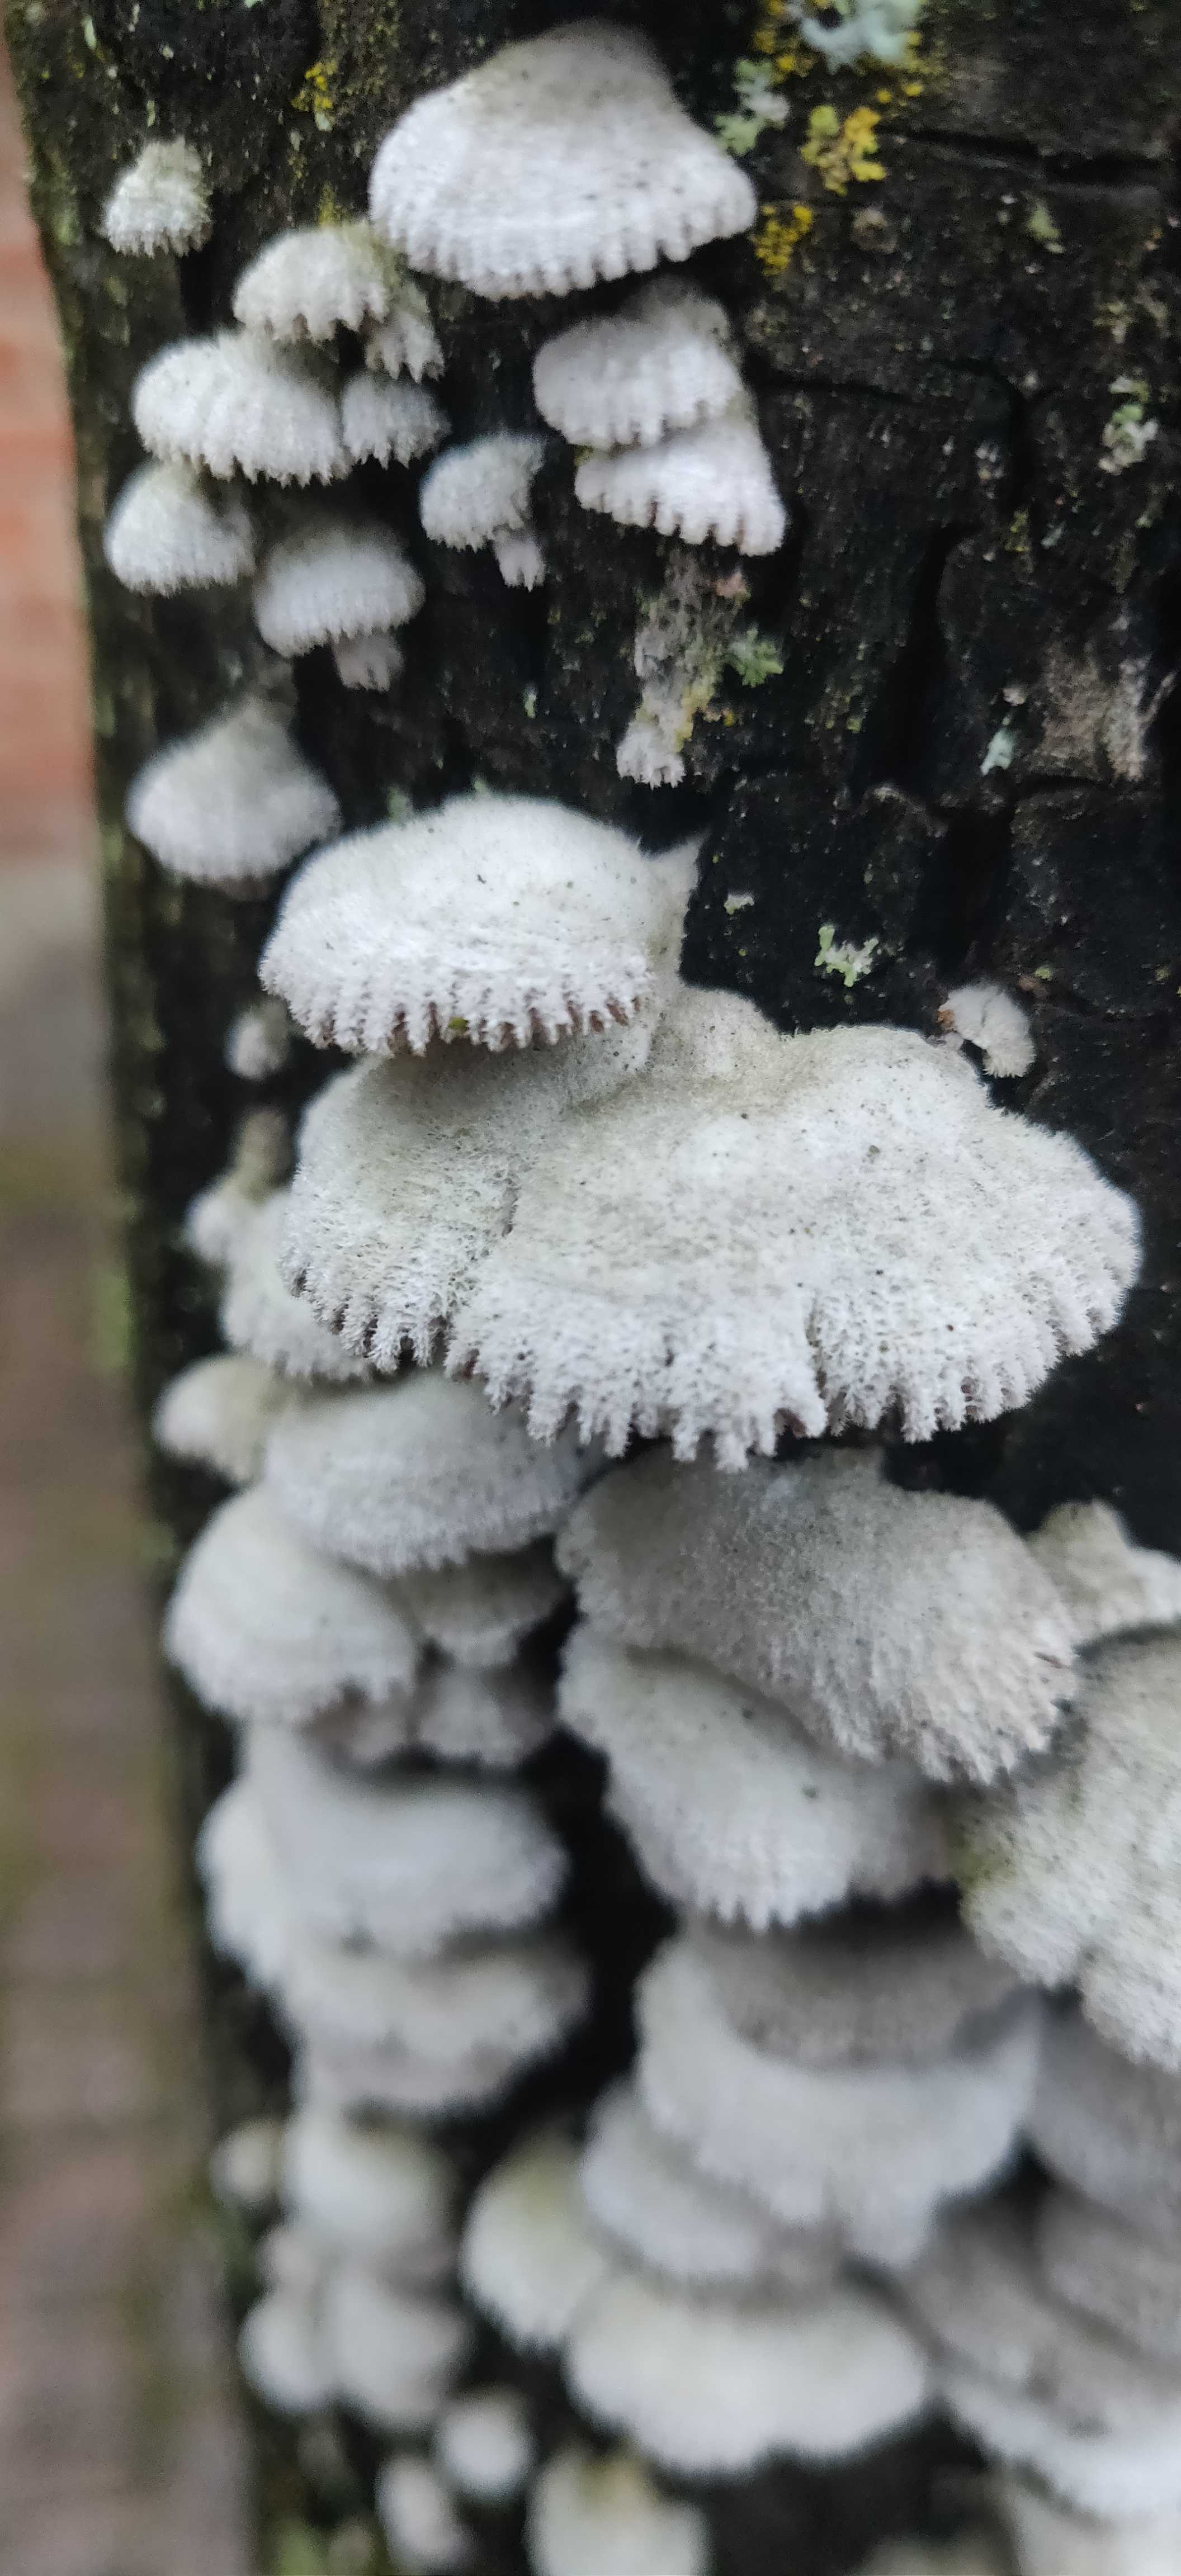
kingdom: Fungi
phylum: Basidiomycota
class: Agaricomycetes
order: Agaricales
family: Schizophyllaceae
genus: Schizophyllum
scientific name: Schizophyllum commune
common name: kløvblad
